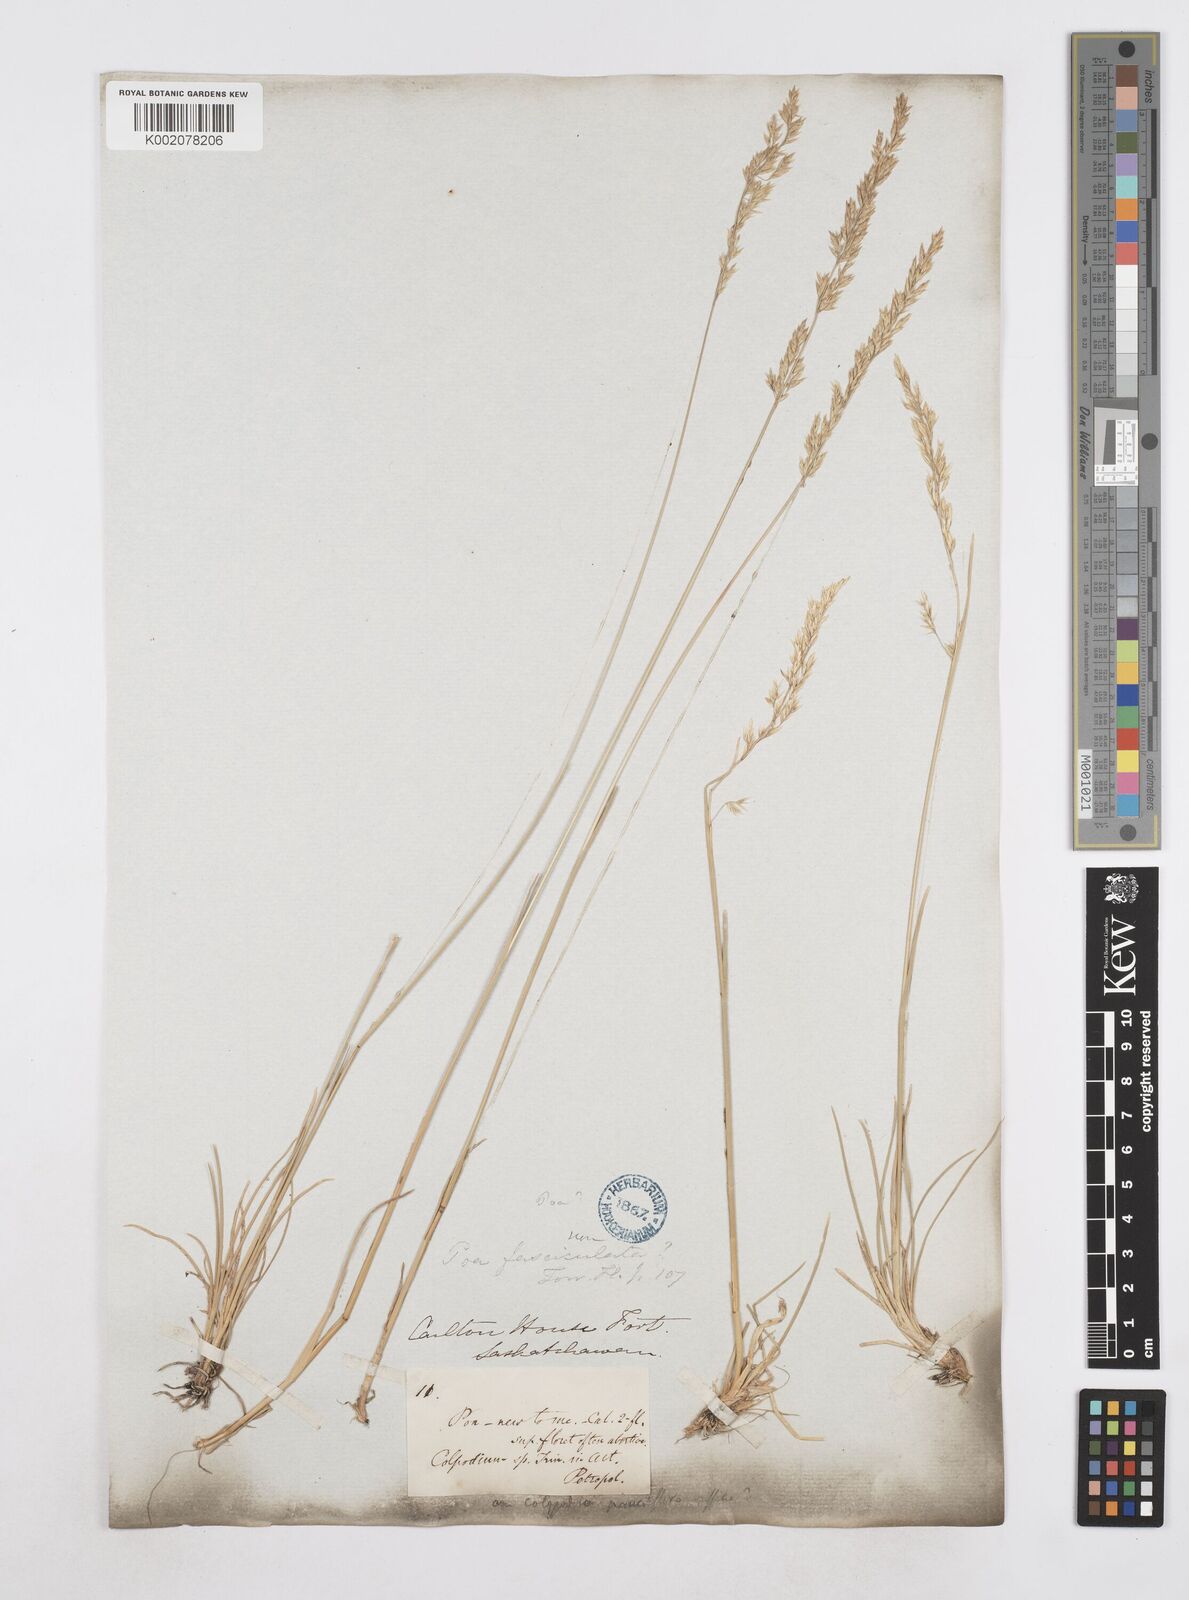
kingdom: Plantae
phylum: Tracheophyta
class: Liliopsida
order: Poales
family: Poaceae
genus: Poa
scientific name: Poa
